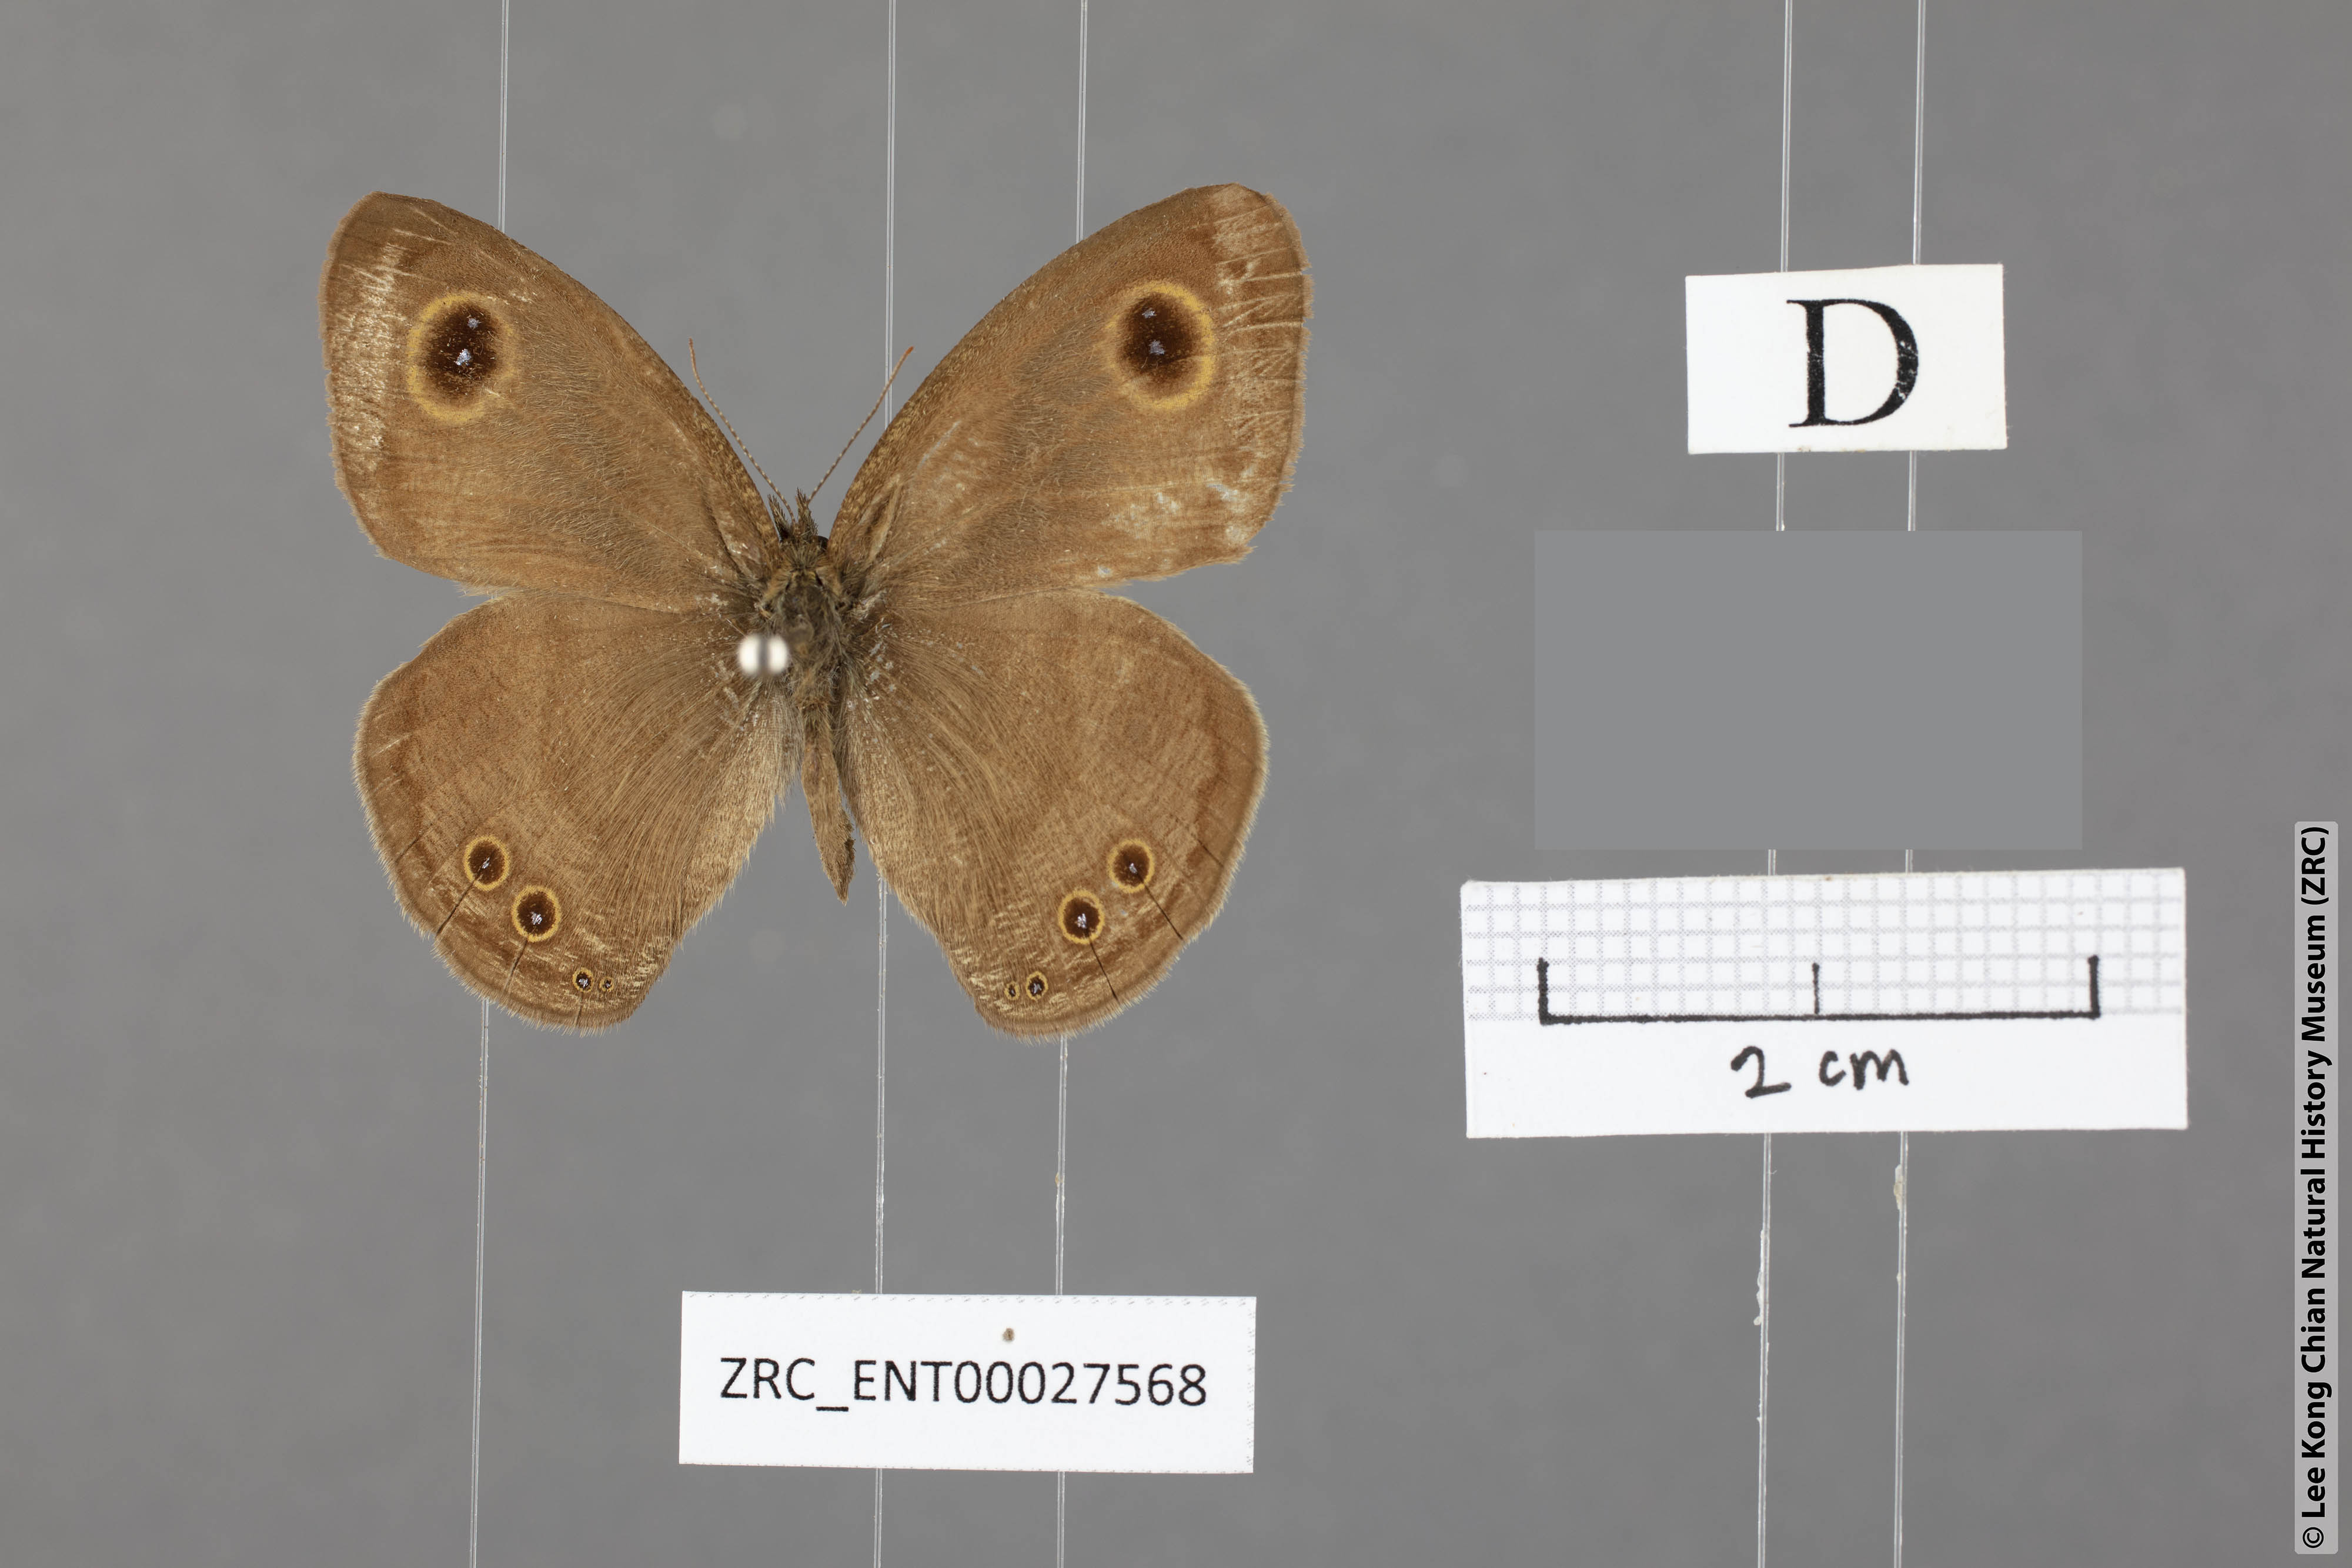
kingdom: Animalia
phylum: Arthropoda
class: Insecta
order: Lepidoptera
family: Nymphalidae
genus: Ypthima
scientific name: Ypthima savara
